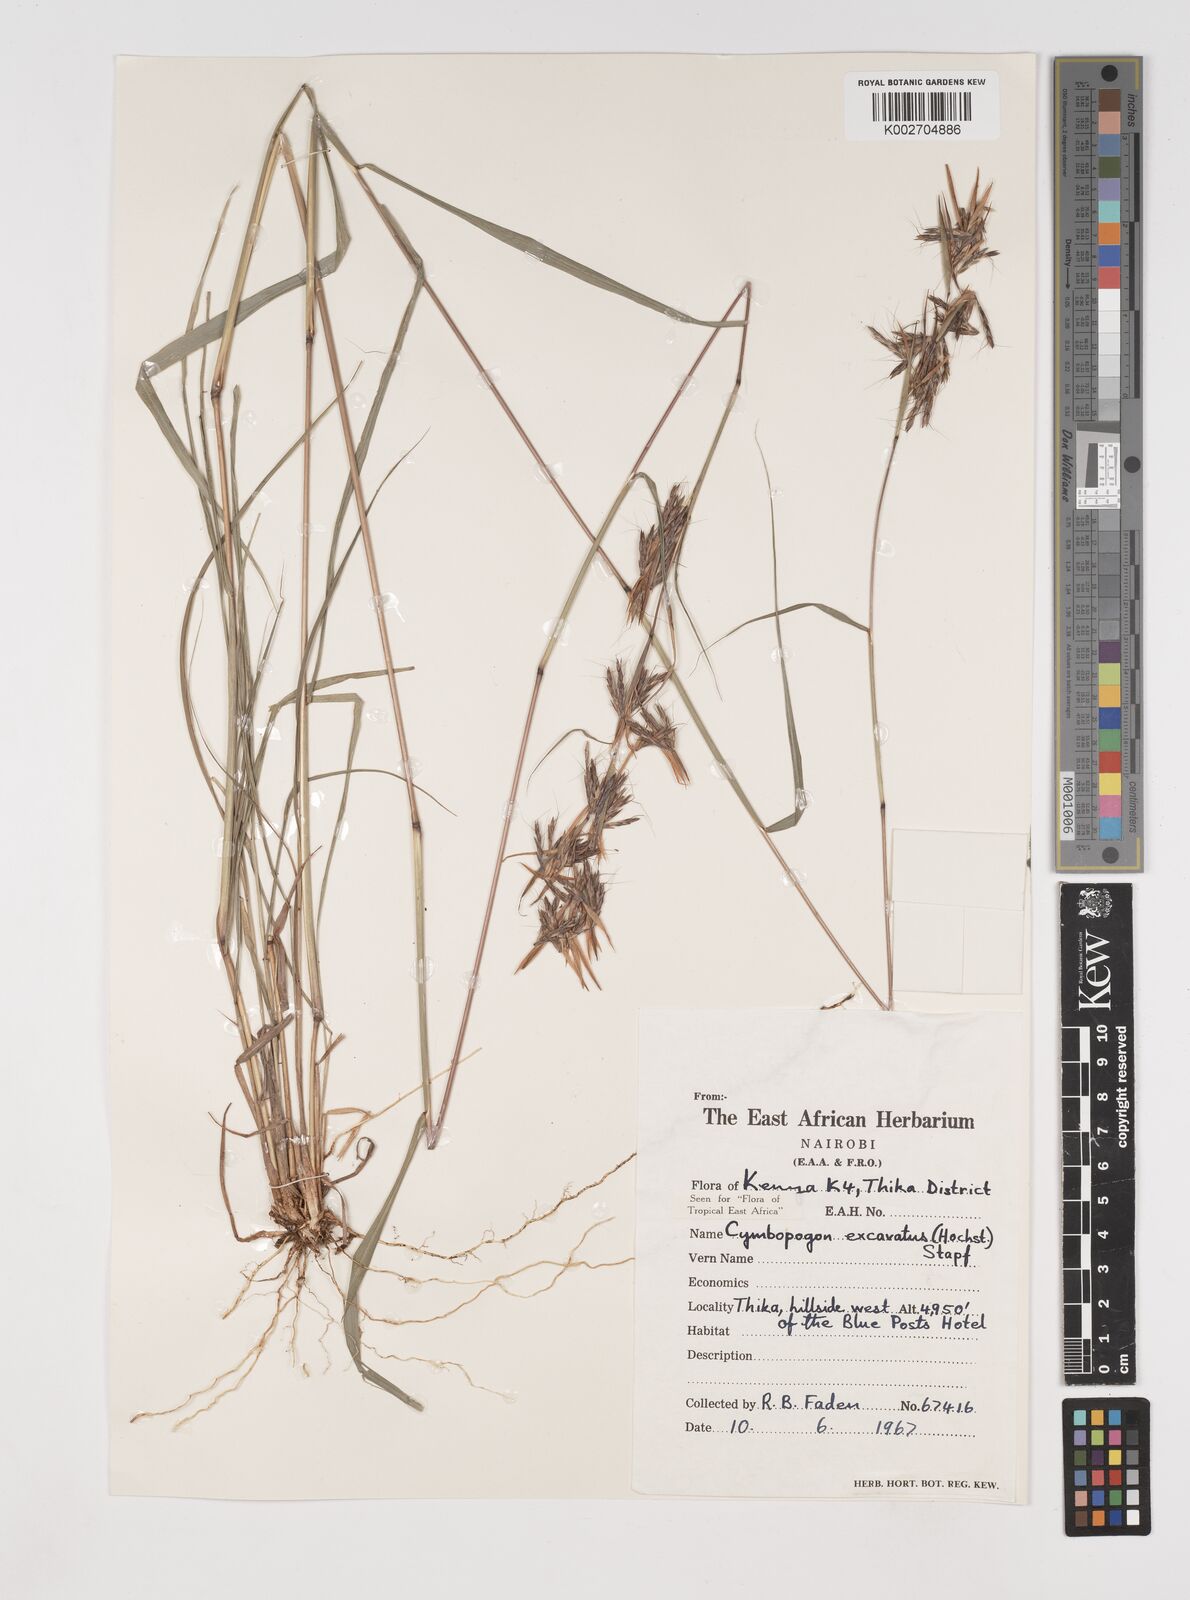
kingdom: Plantae
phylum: Tracheophyta
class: Liliopsida
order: Poales
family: Poaceae
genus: Cymbopogon
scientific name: Cymbopogon caesius
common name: Kachi grass
